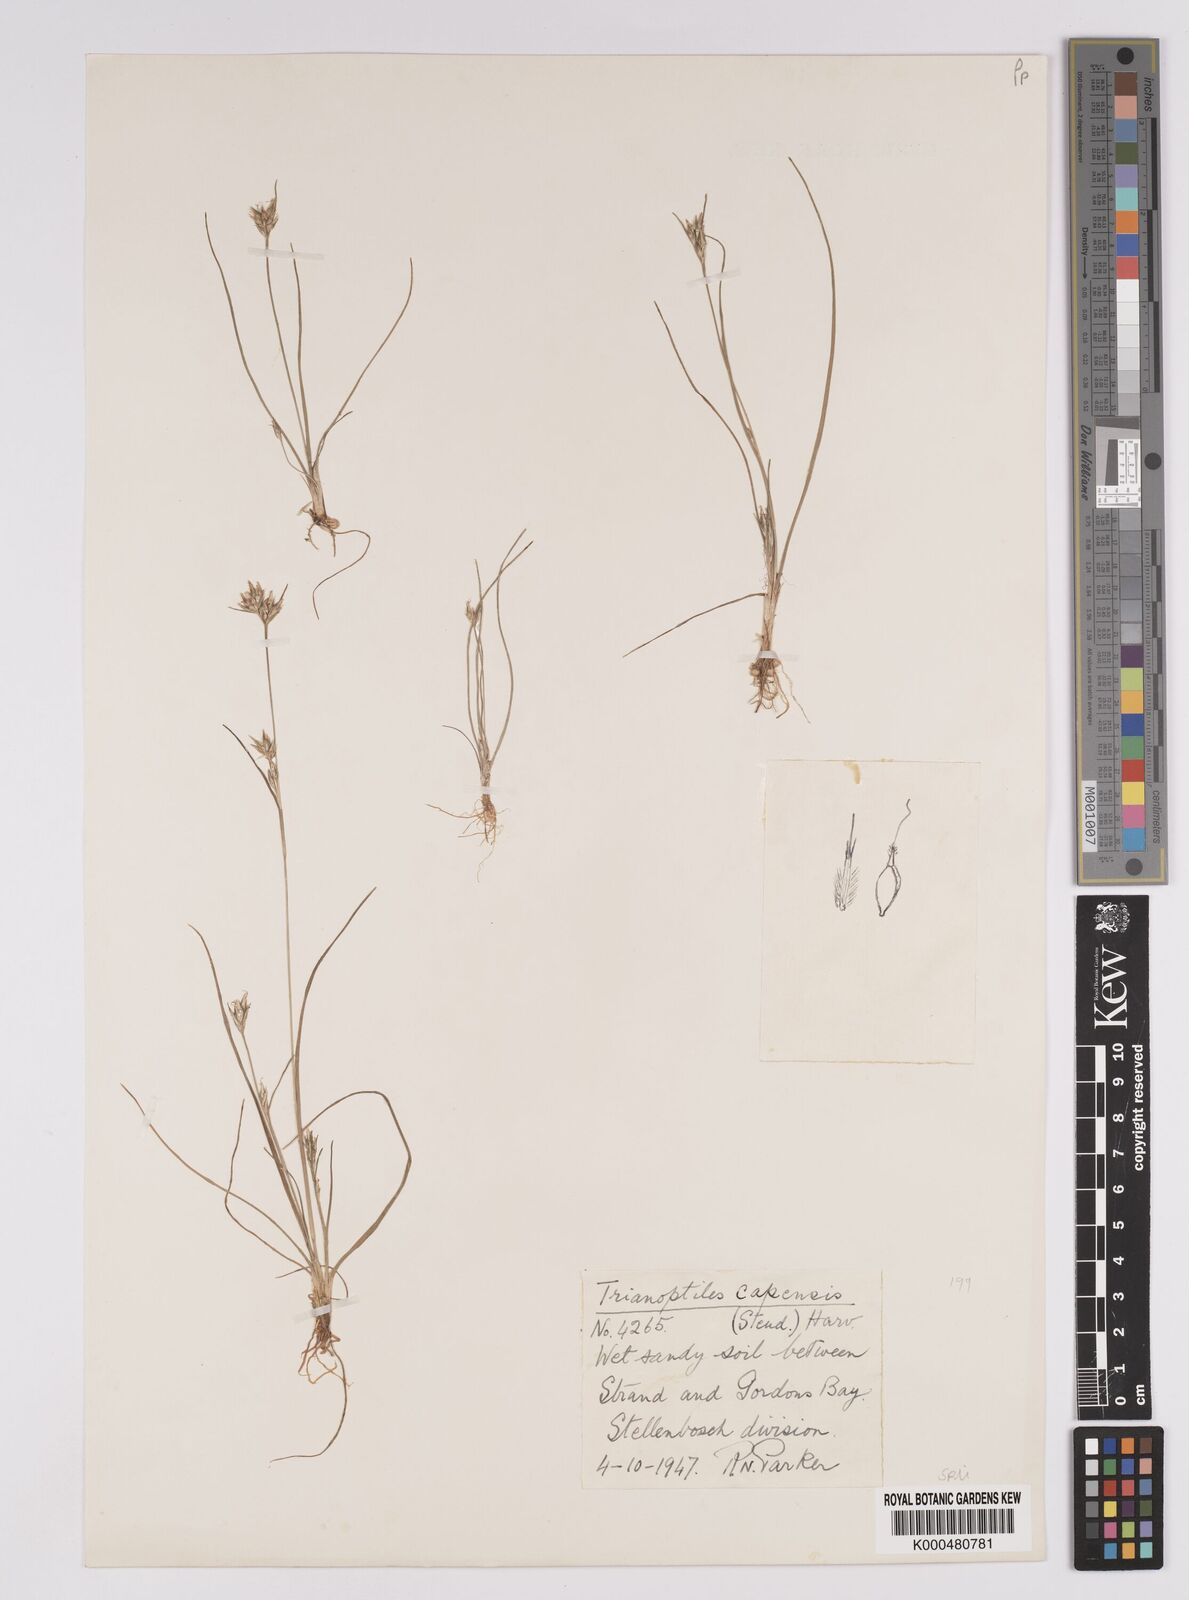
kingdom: Plantae
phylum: Tracheophyta
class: Liliopsida
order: Poales
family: Cyperaceae
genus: Trianoptiles
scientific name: Trianoptiles capensis
